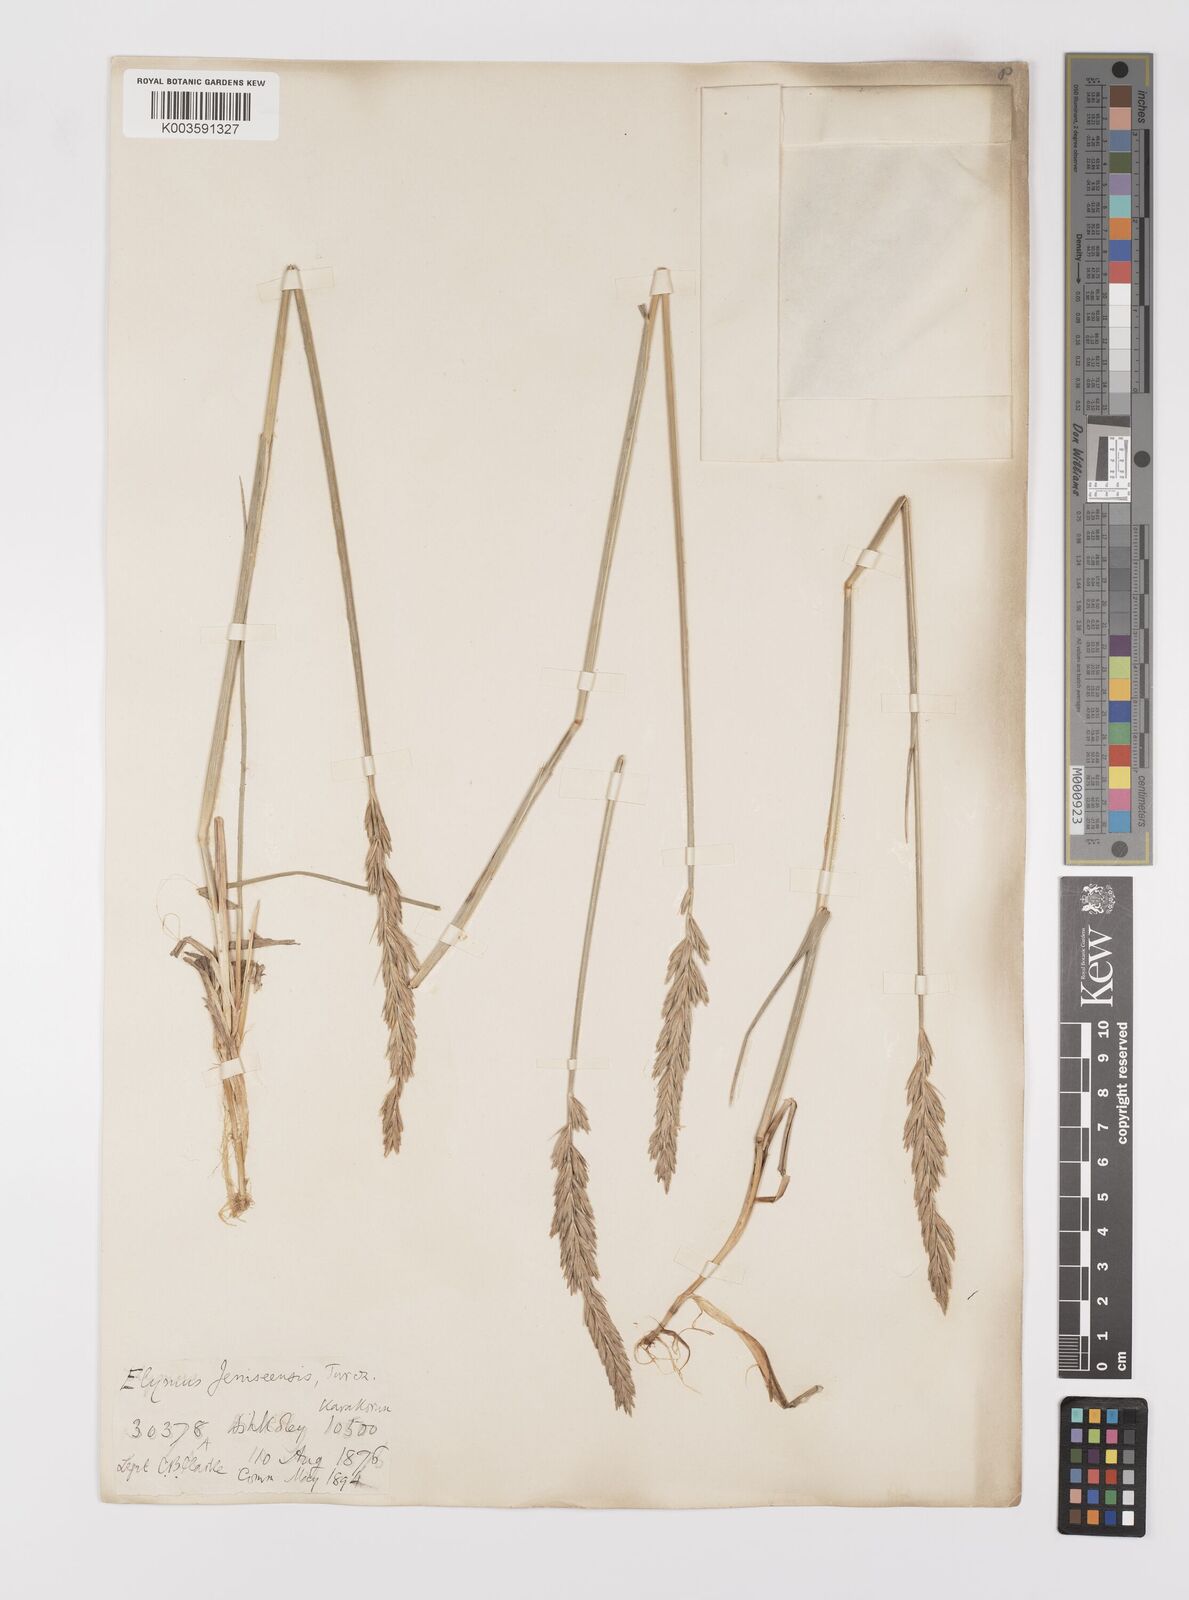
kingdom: Plantae
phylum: Tracheophyta
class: Liliopsida
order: Poales
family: Poaceae
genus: Leymus
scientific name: Leymus secalinus
